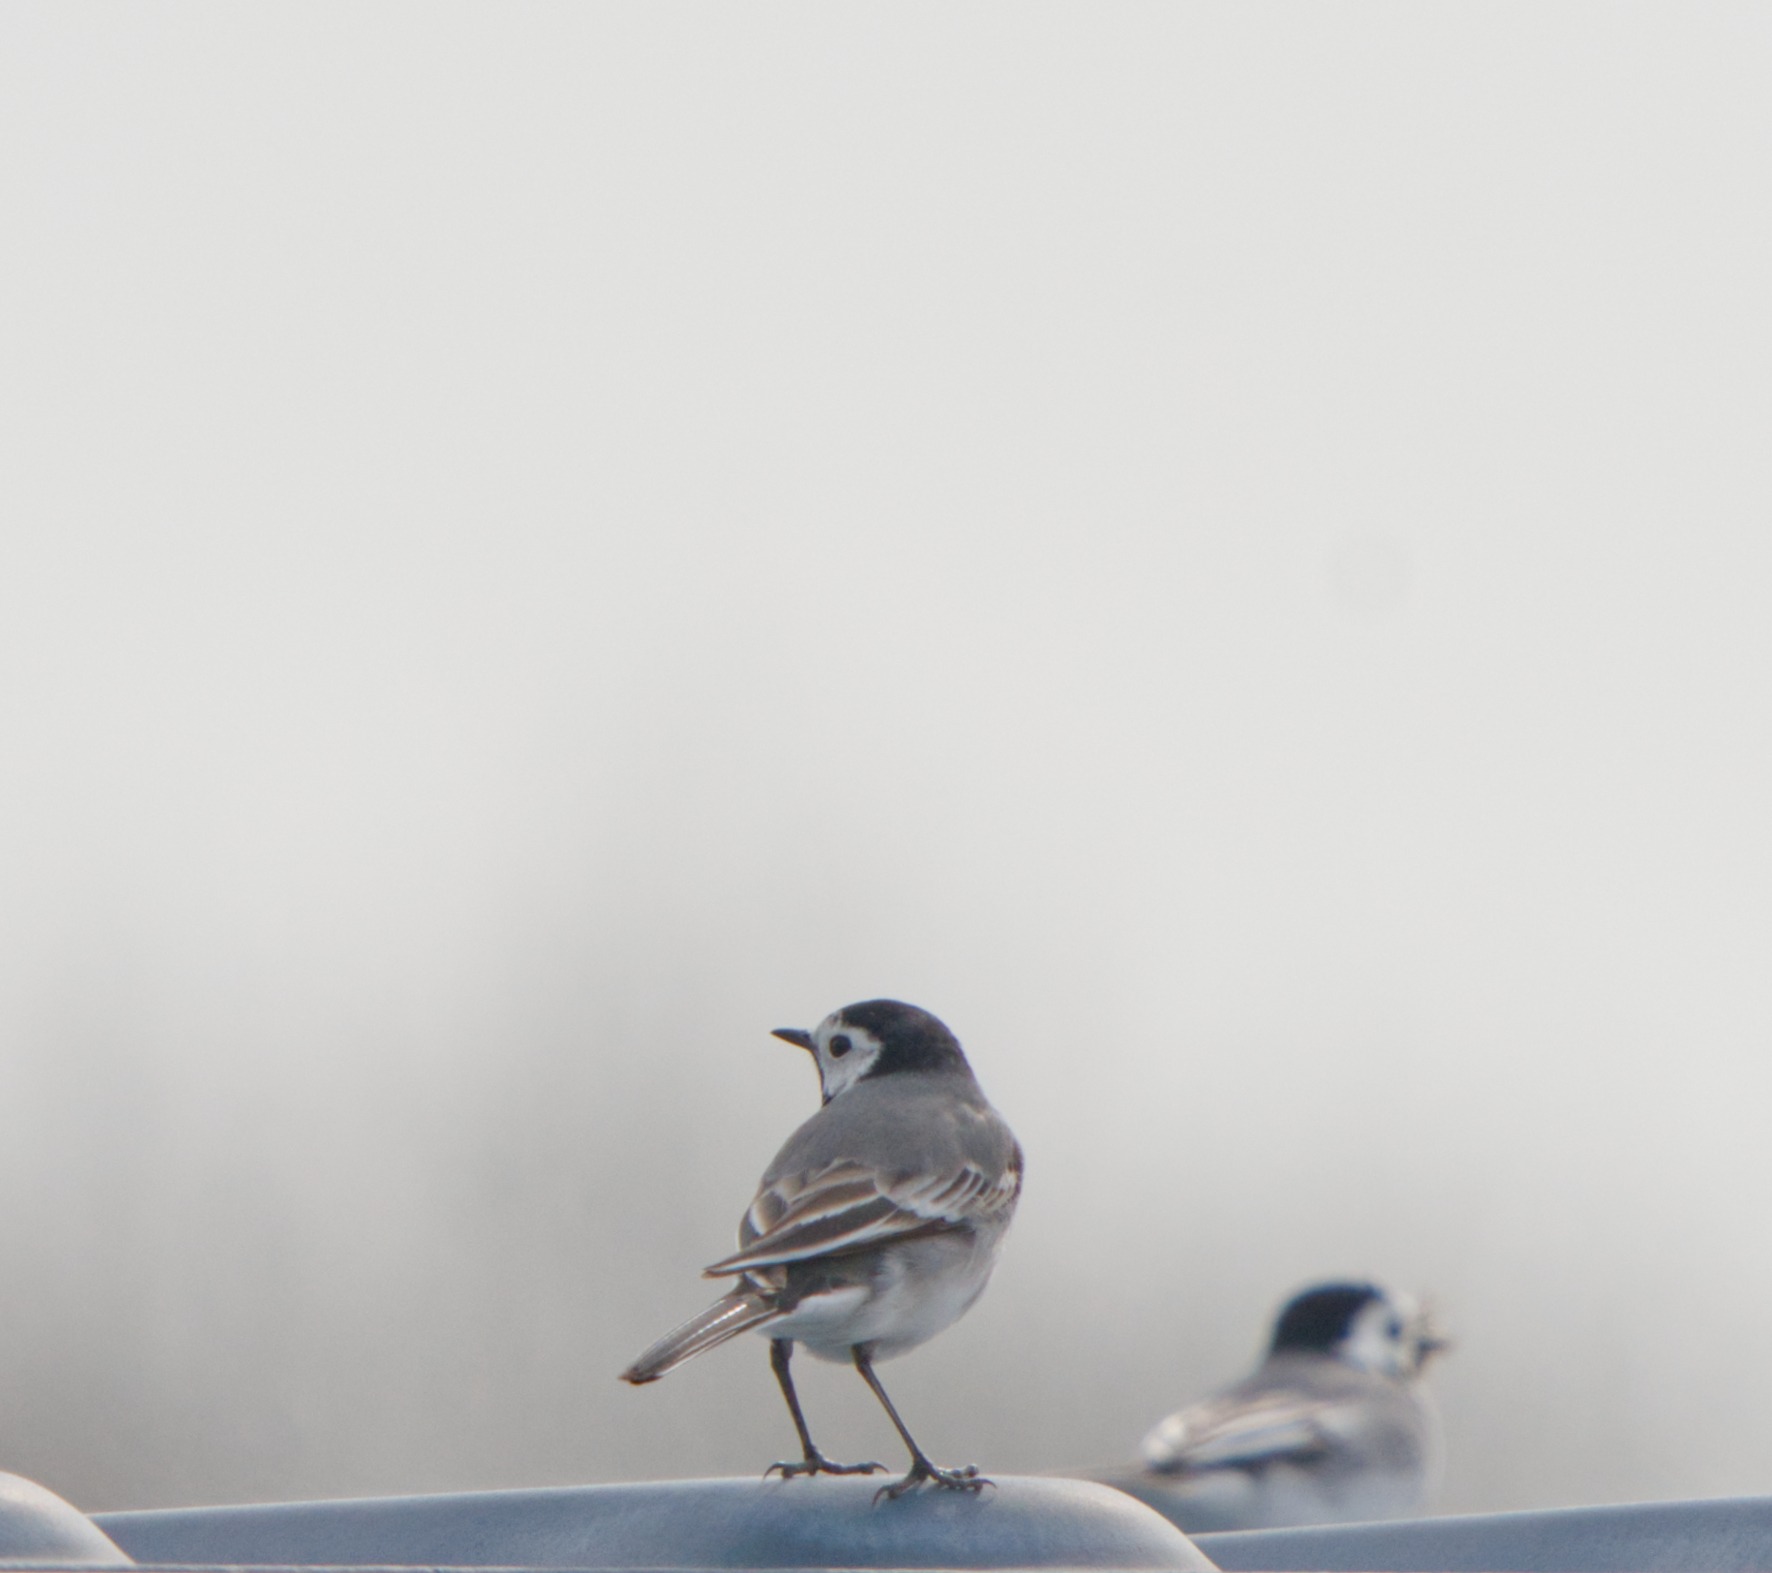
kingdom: Animalia
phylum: Chordata
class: Aves
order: Passeriformes
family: Motacillidae
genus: Motacilla
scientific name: Motacilla alba
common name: Hvid vipstjert
